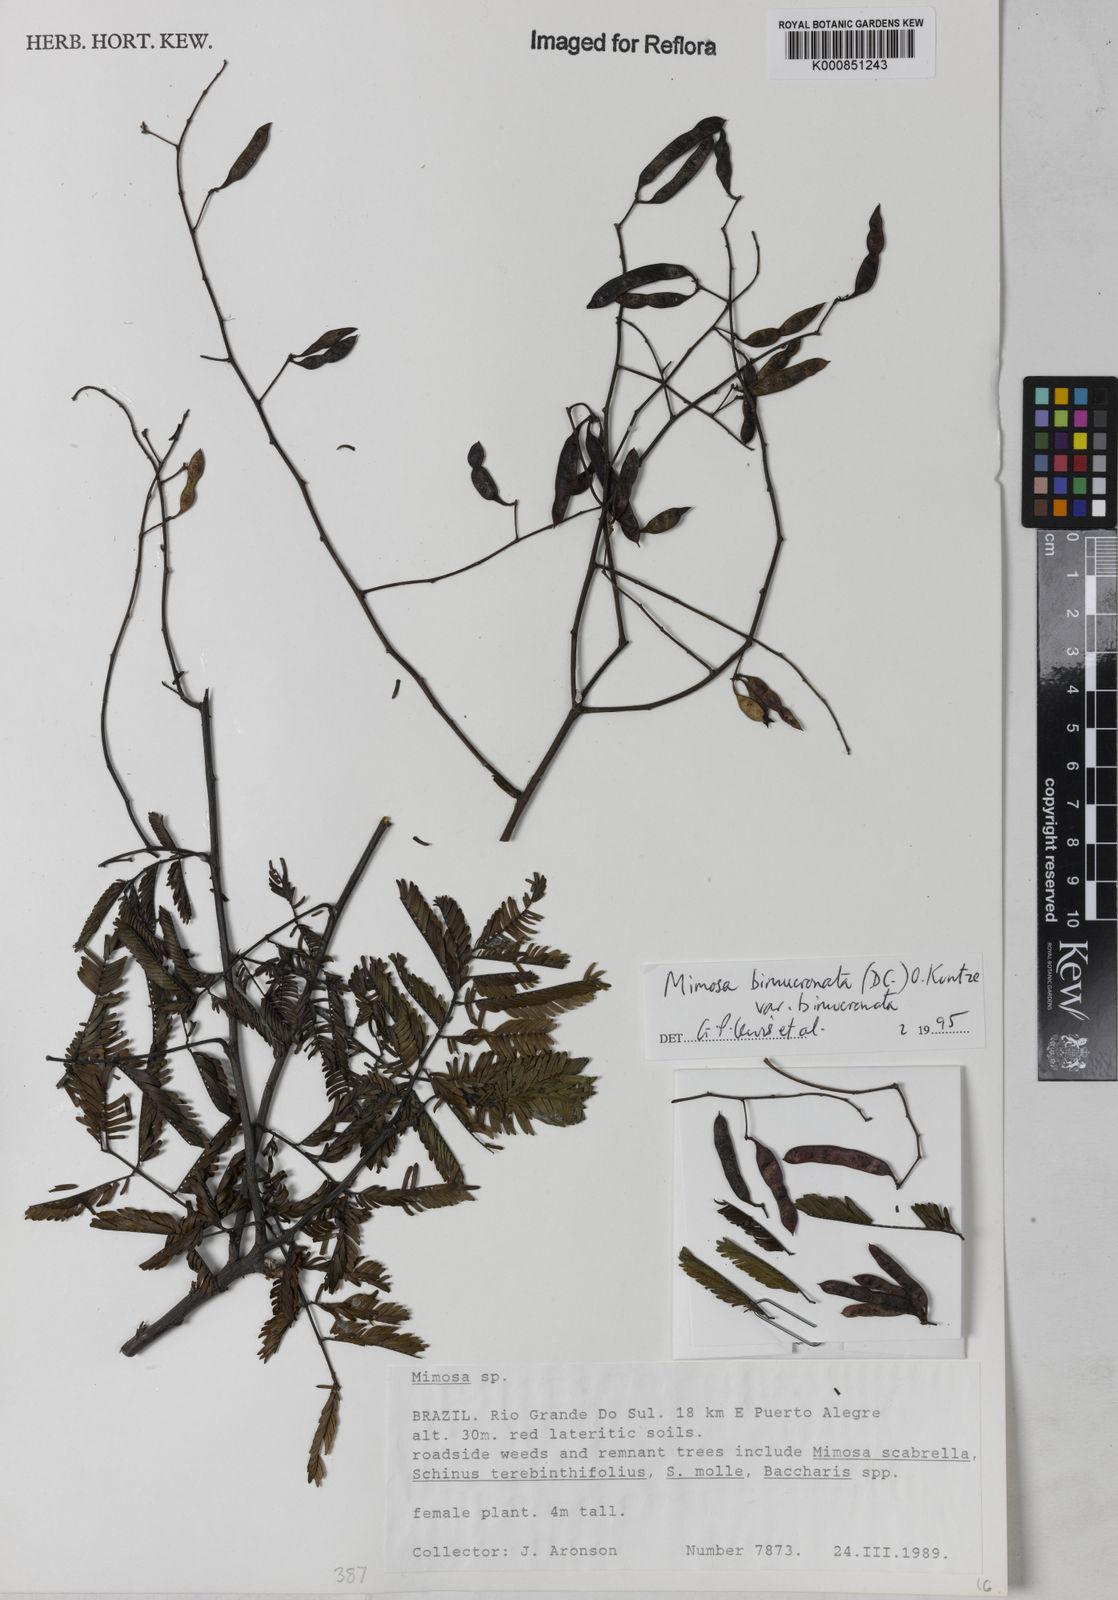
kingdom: Plantae
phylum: Tracheophyta
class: Magnoliopsida
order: Fabales
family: Fabaceae
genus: Mimosa
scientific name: Mimosa bimucronata
